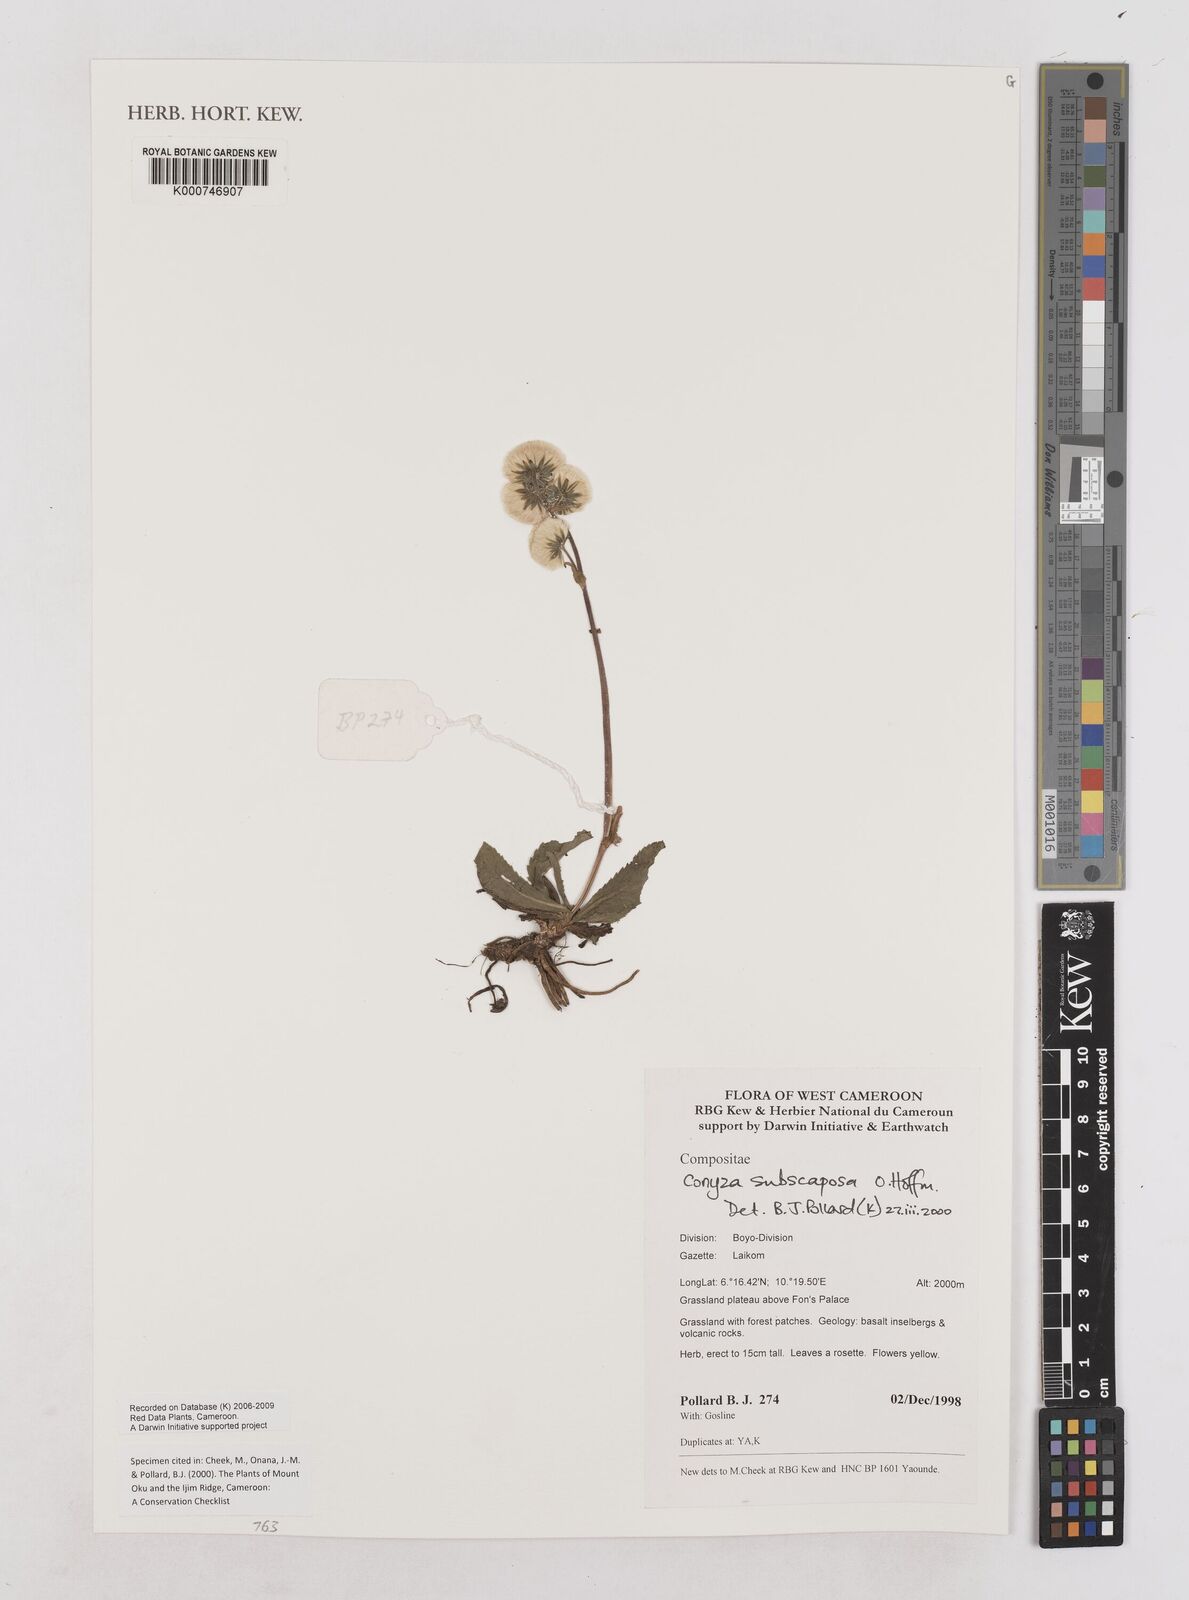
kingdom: Plantae
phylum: Tracheophyta
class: Magnoliopsida
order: Asterales
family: Asteraceae
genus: Eschenbachia
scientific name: Eschenbachia subscaposa
